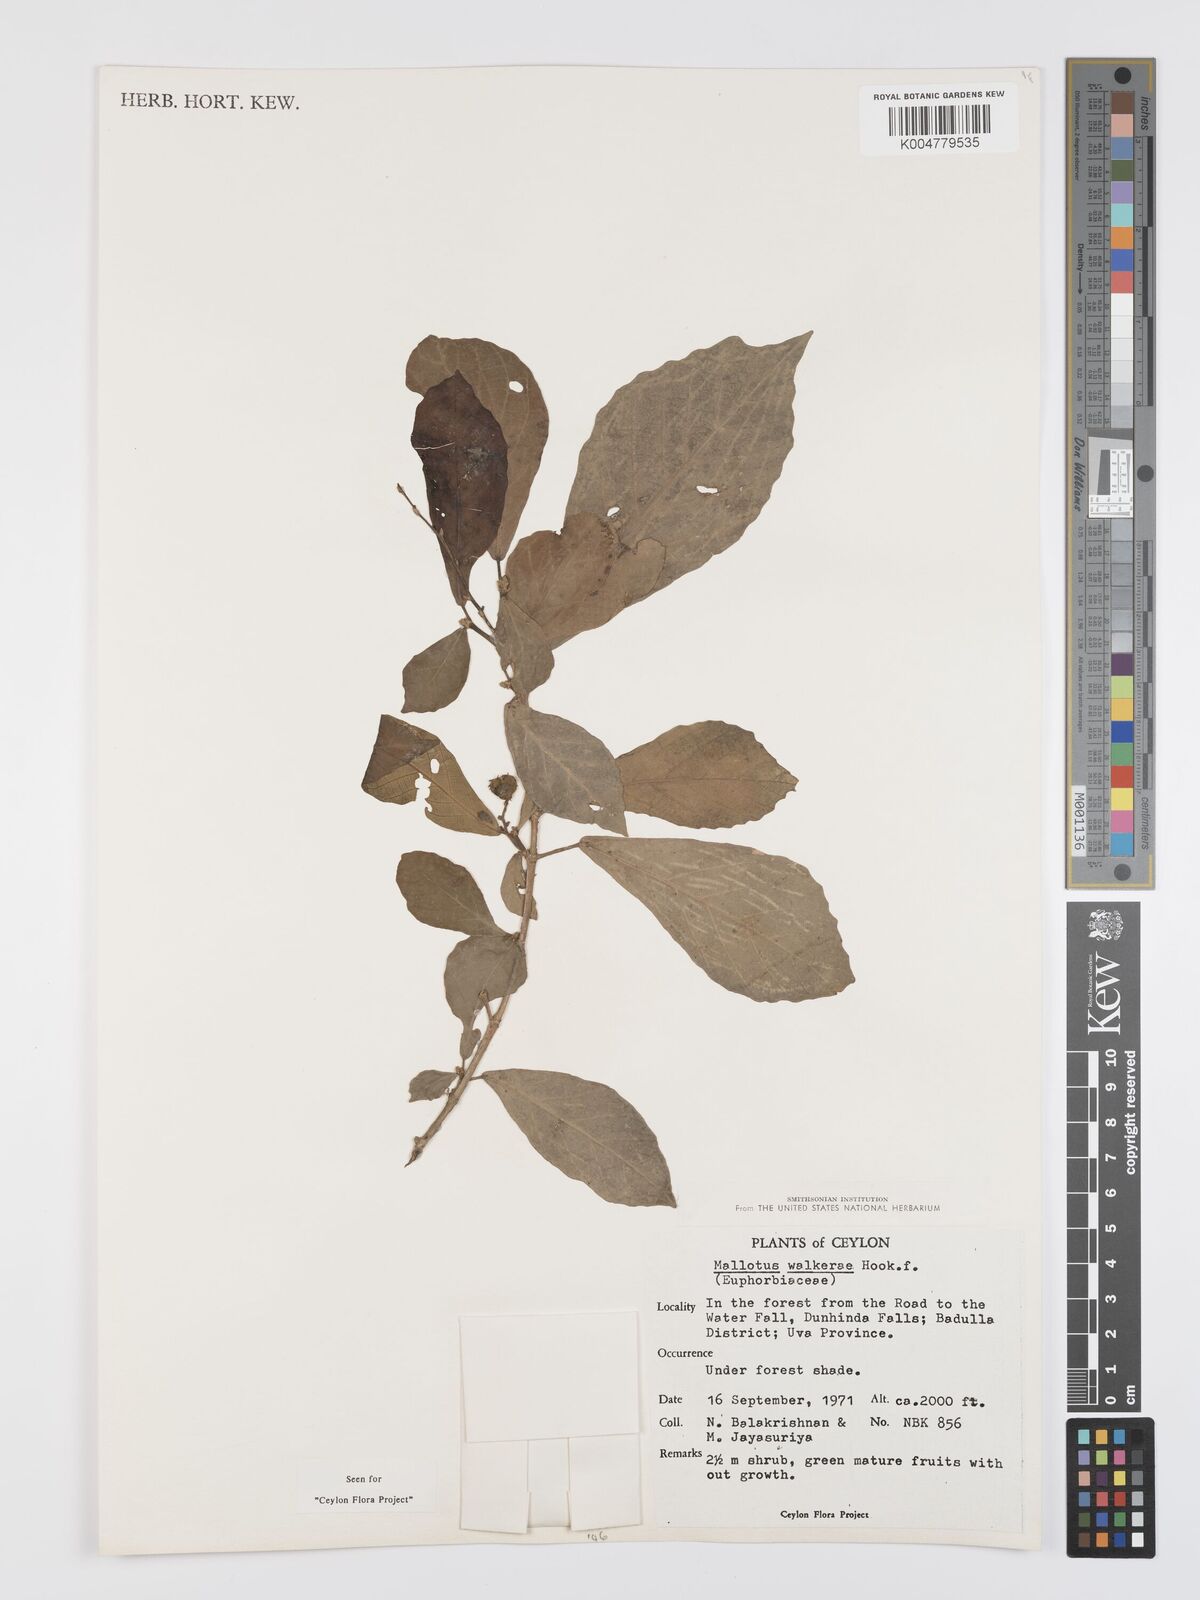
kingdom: Plantae
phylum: Tracheophyta
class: Magnoliopsida
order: Malpighiales
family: Euphorbiaceae
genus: Mallotus
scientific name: Mallotus resinosus
